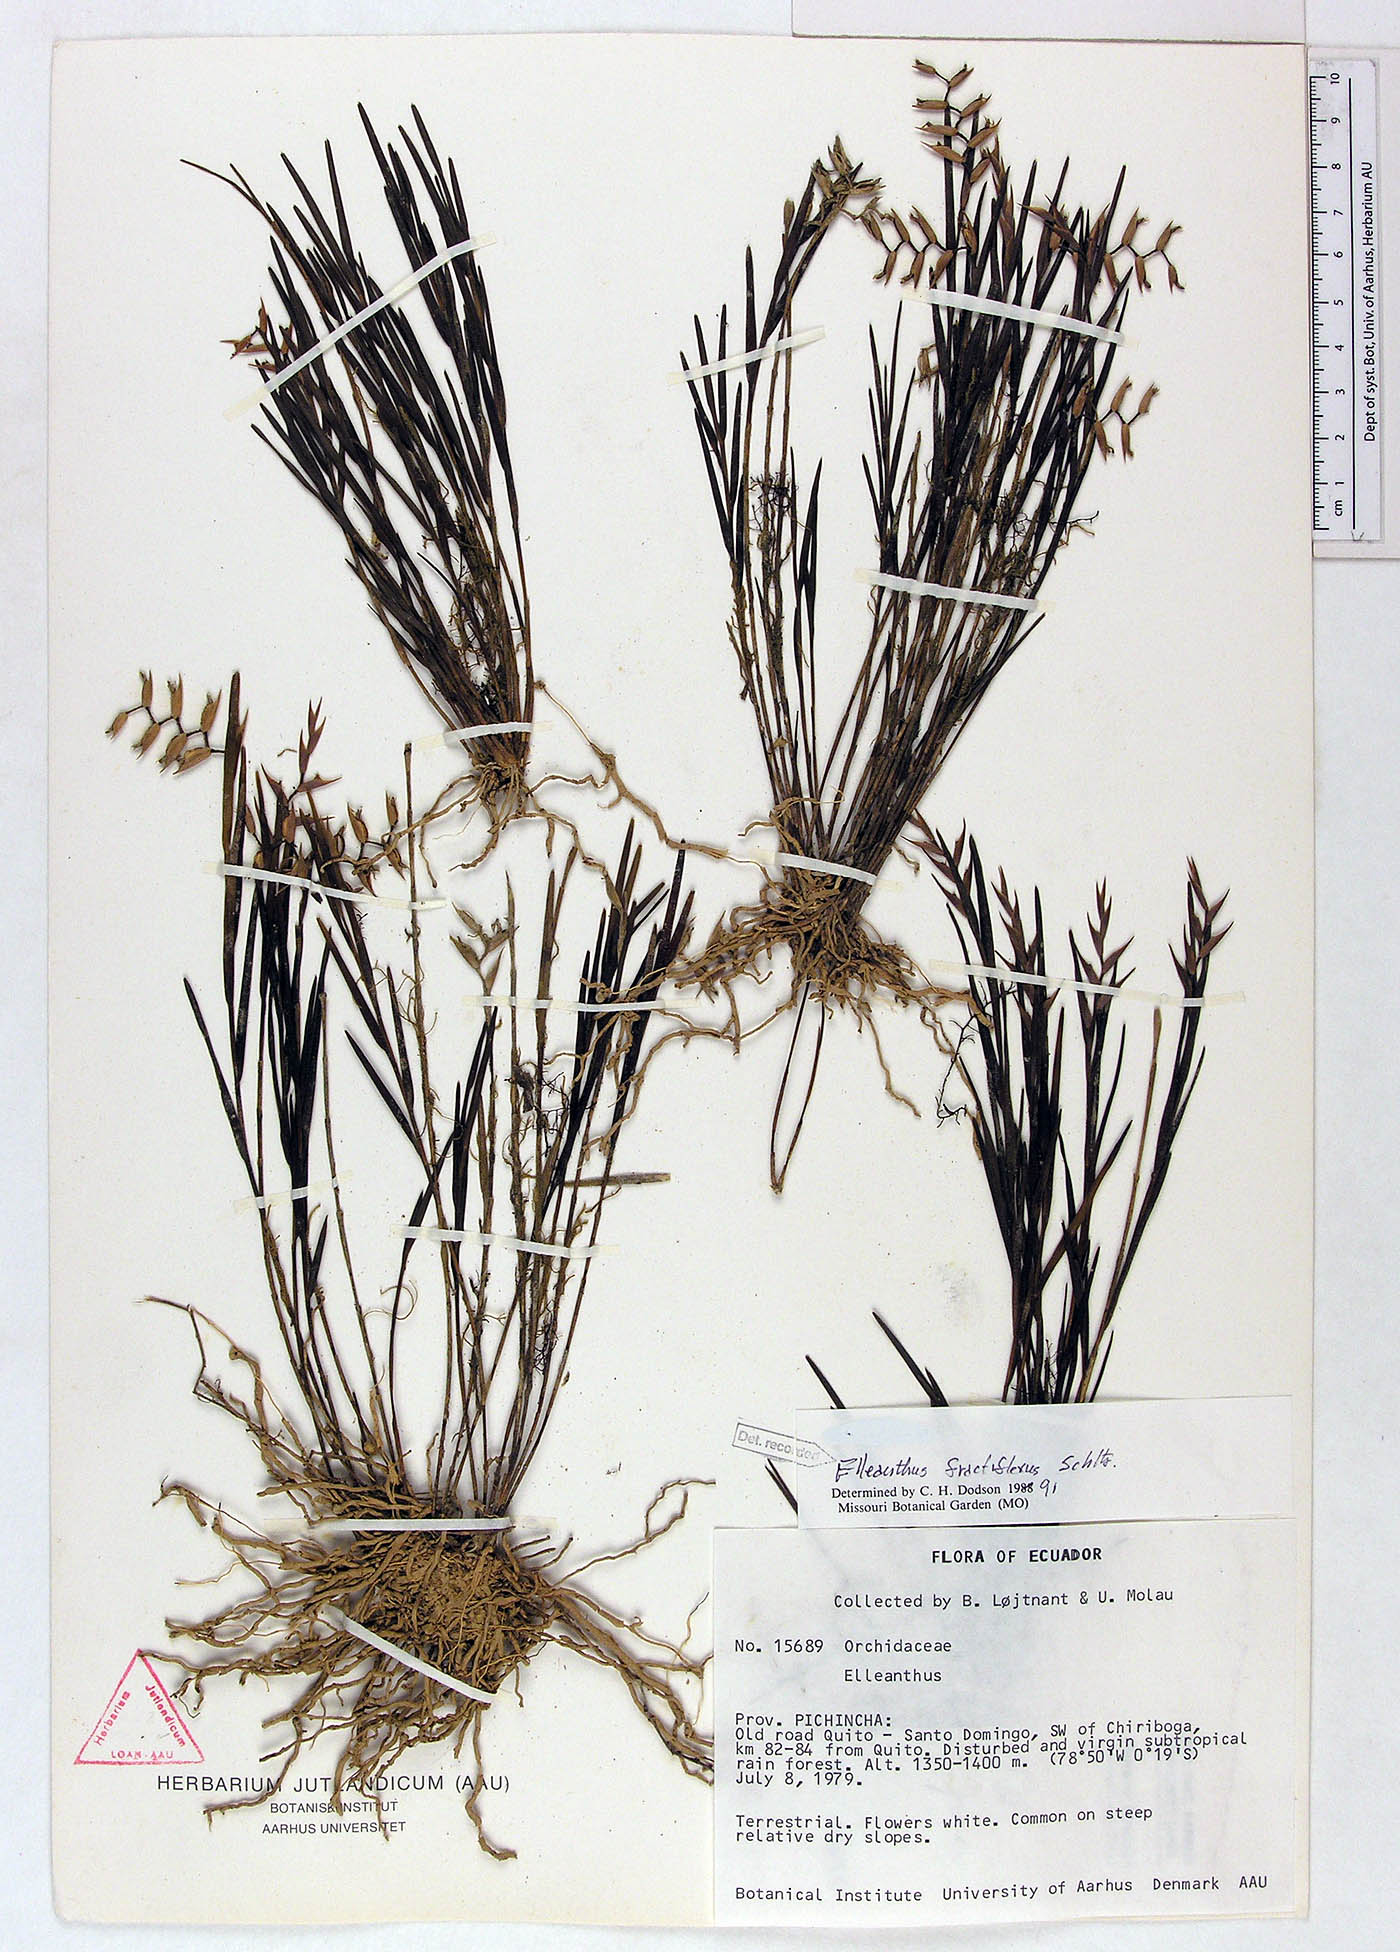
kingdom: Plantae
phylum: Tracheophyta
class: Liliopsida
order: Asparagales
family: Orchidaceae
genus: Elleanthus
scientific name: Elleanthus fractiflexus
